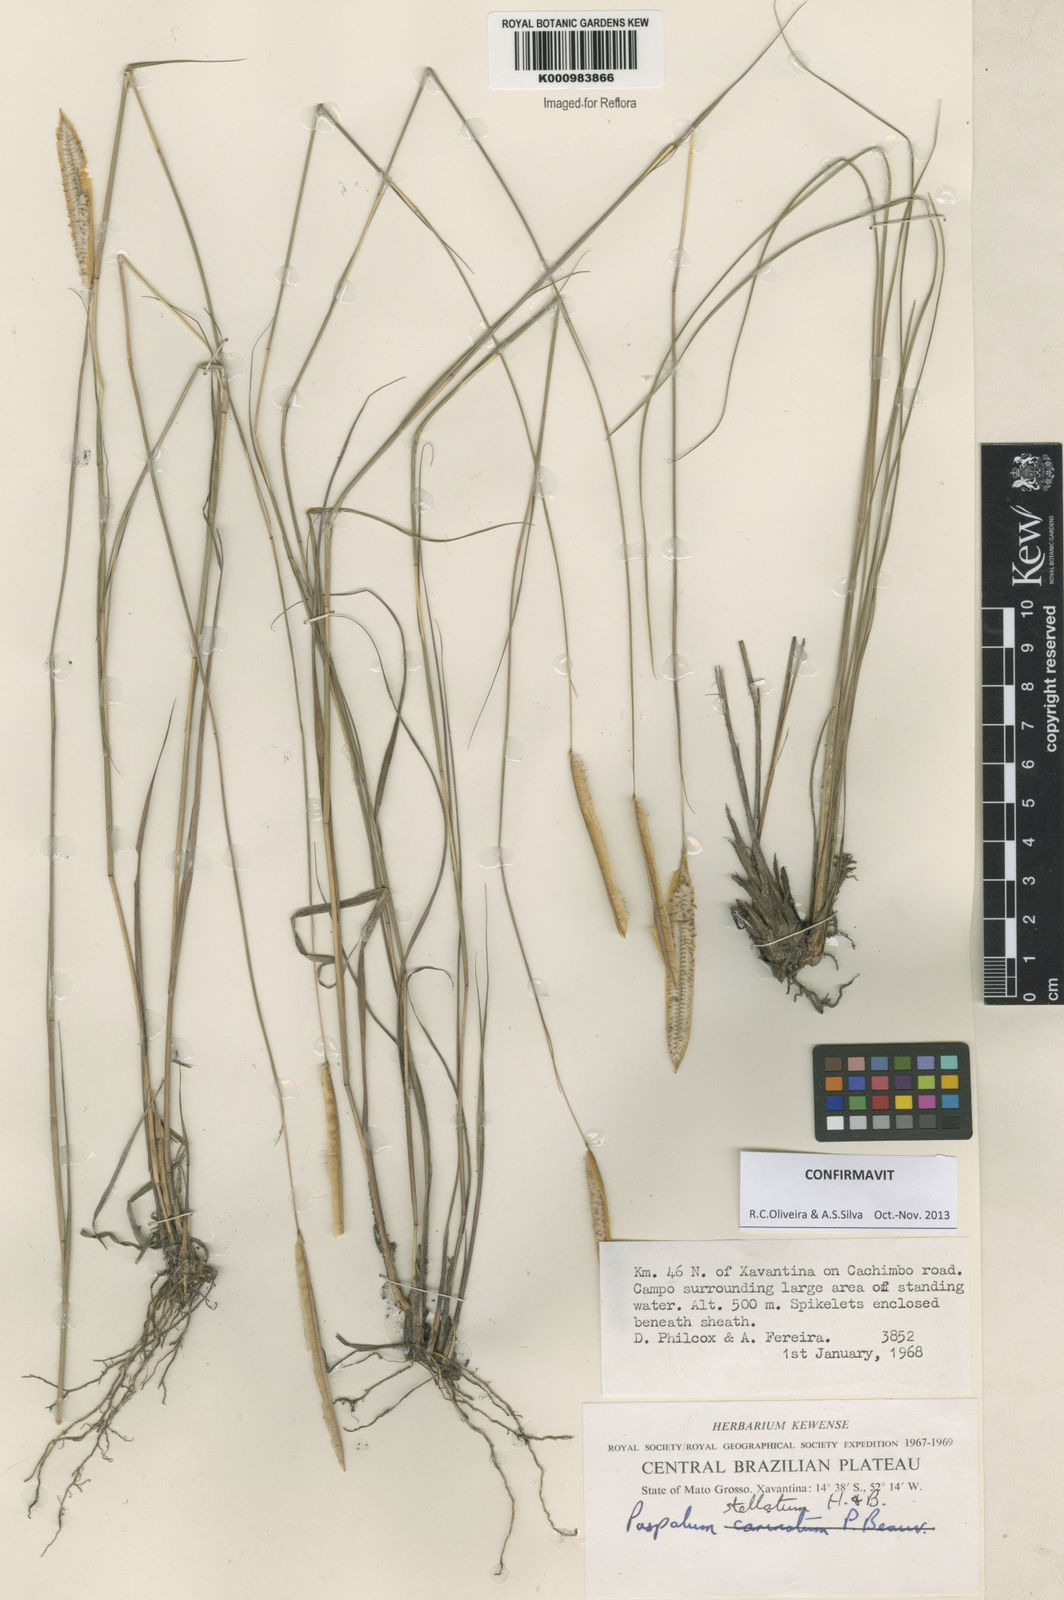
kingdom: Plantae
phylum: Tracheophyta
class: Liliopsida
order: Poales
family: Poaceae
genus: Paspalum
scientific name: Paspalum
